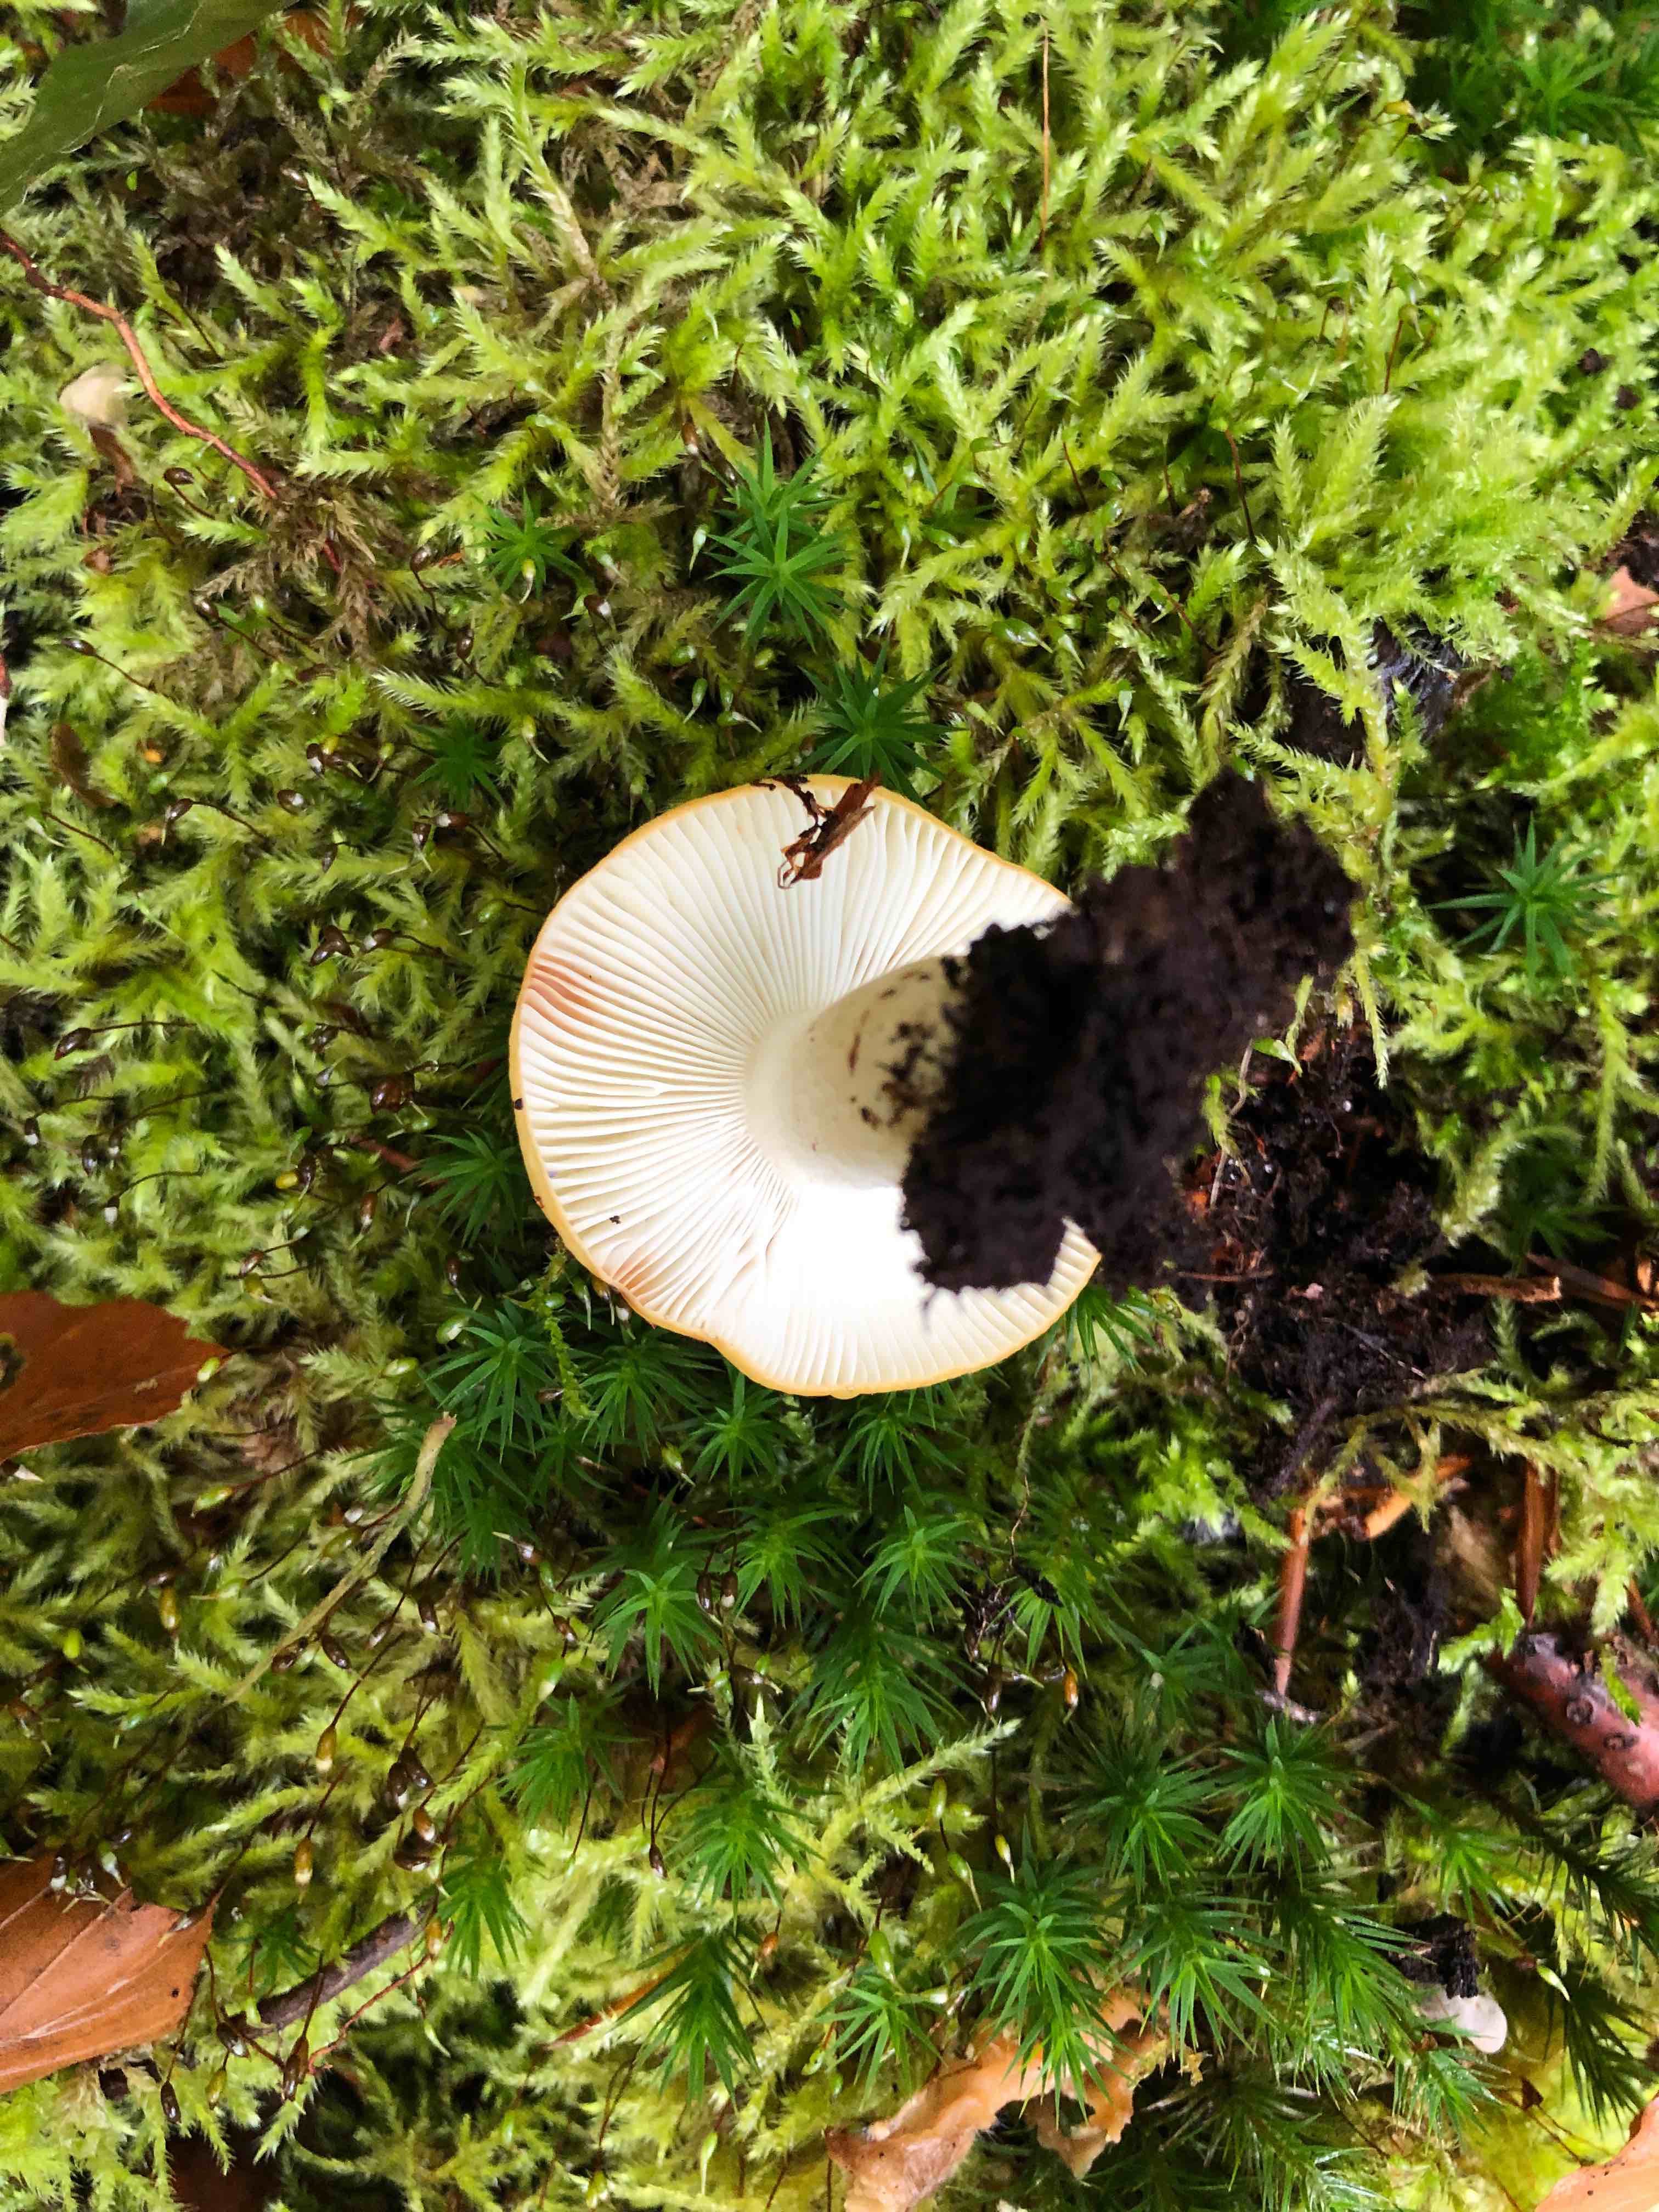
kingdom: Fungi
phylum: Basidiomycota
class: Agaricomycetes
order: Russulales
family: Russulaceae
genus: Russula
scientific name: Russula ochroleuca
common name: okkergul skørhat
